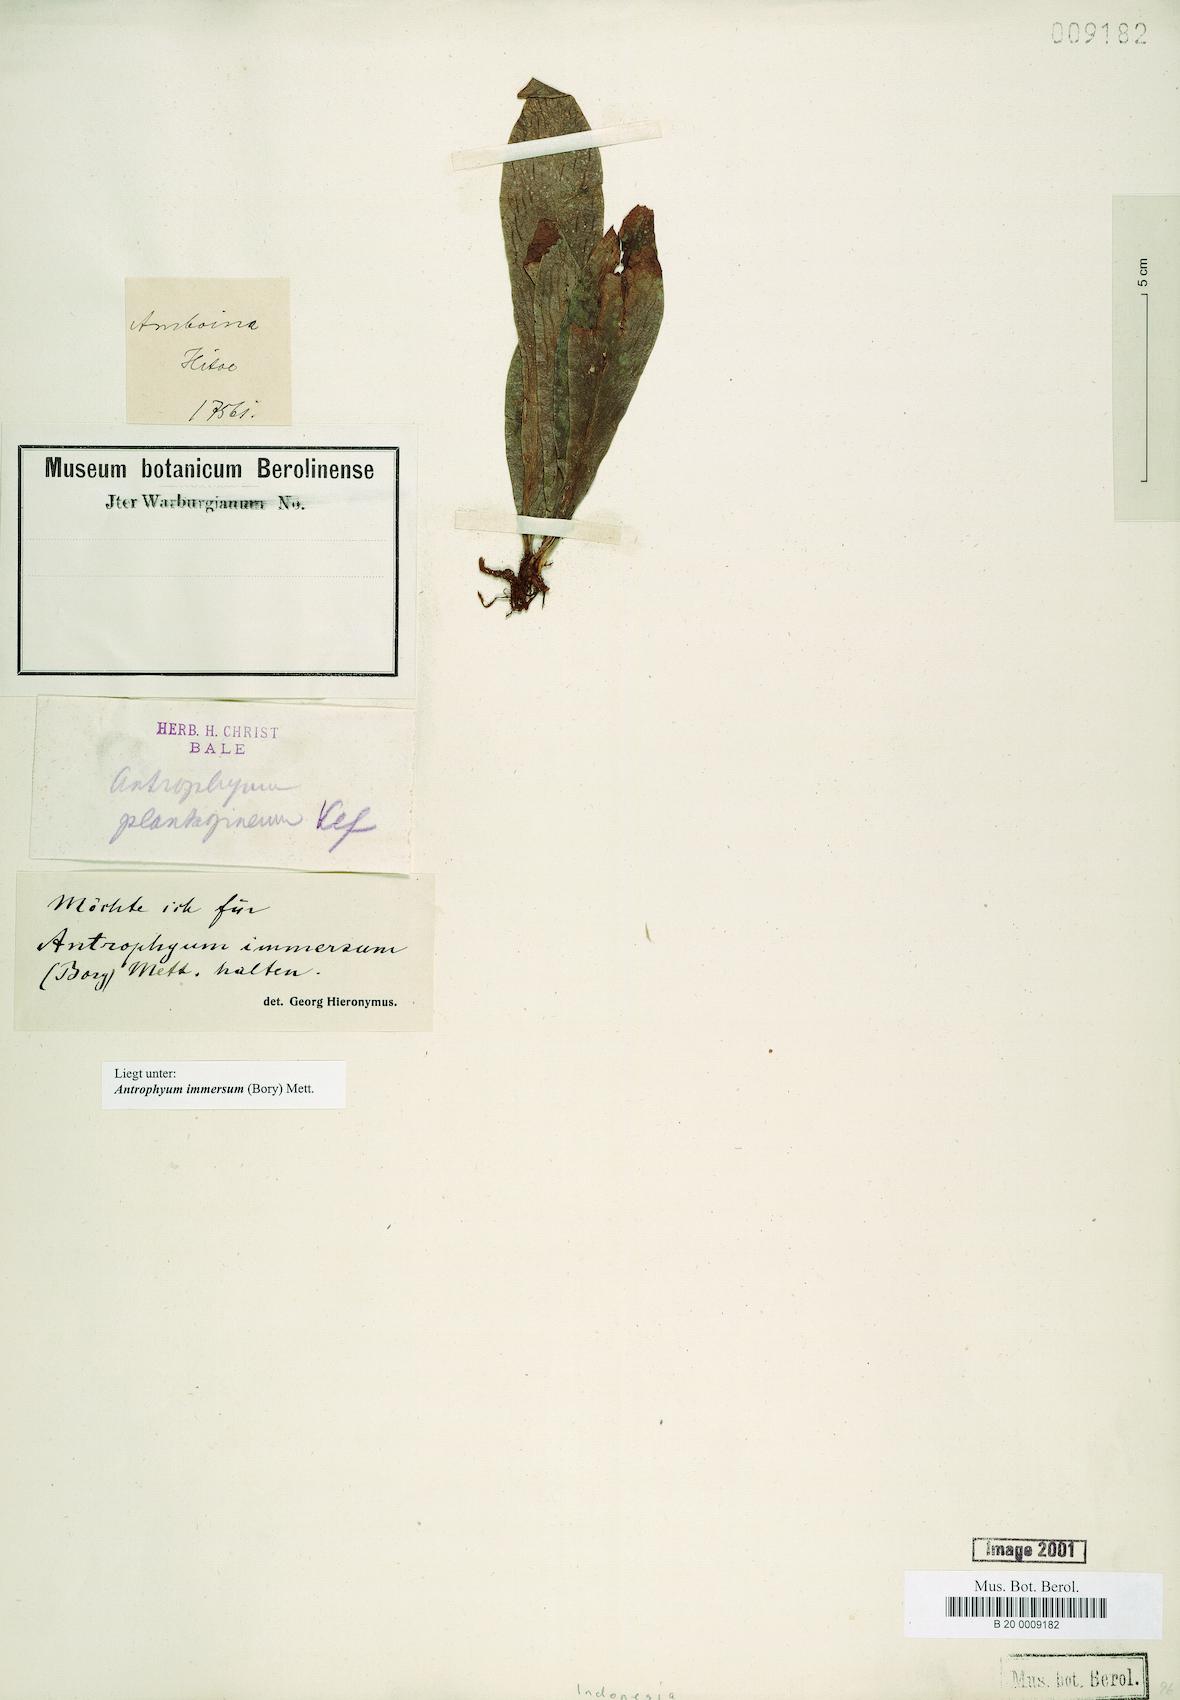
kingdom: Plantae
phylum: Tracheophyta
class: Polypodiopsida
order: Polypodiales
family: Pteridaceae
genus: Antrophyum
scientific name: Antrophyum parvulum
